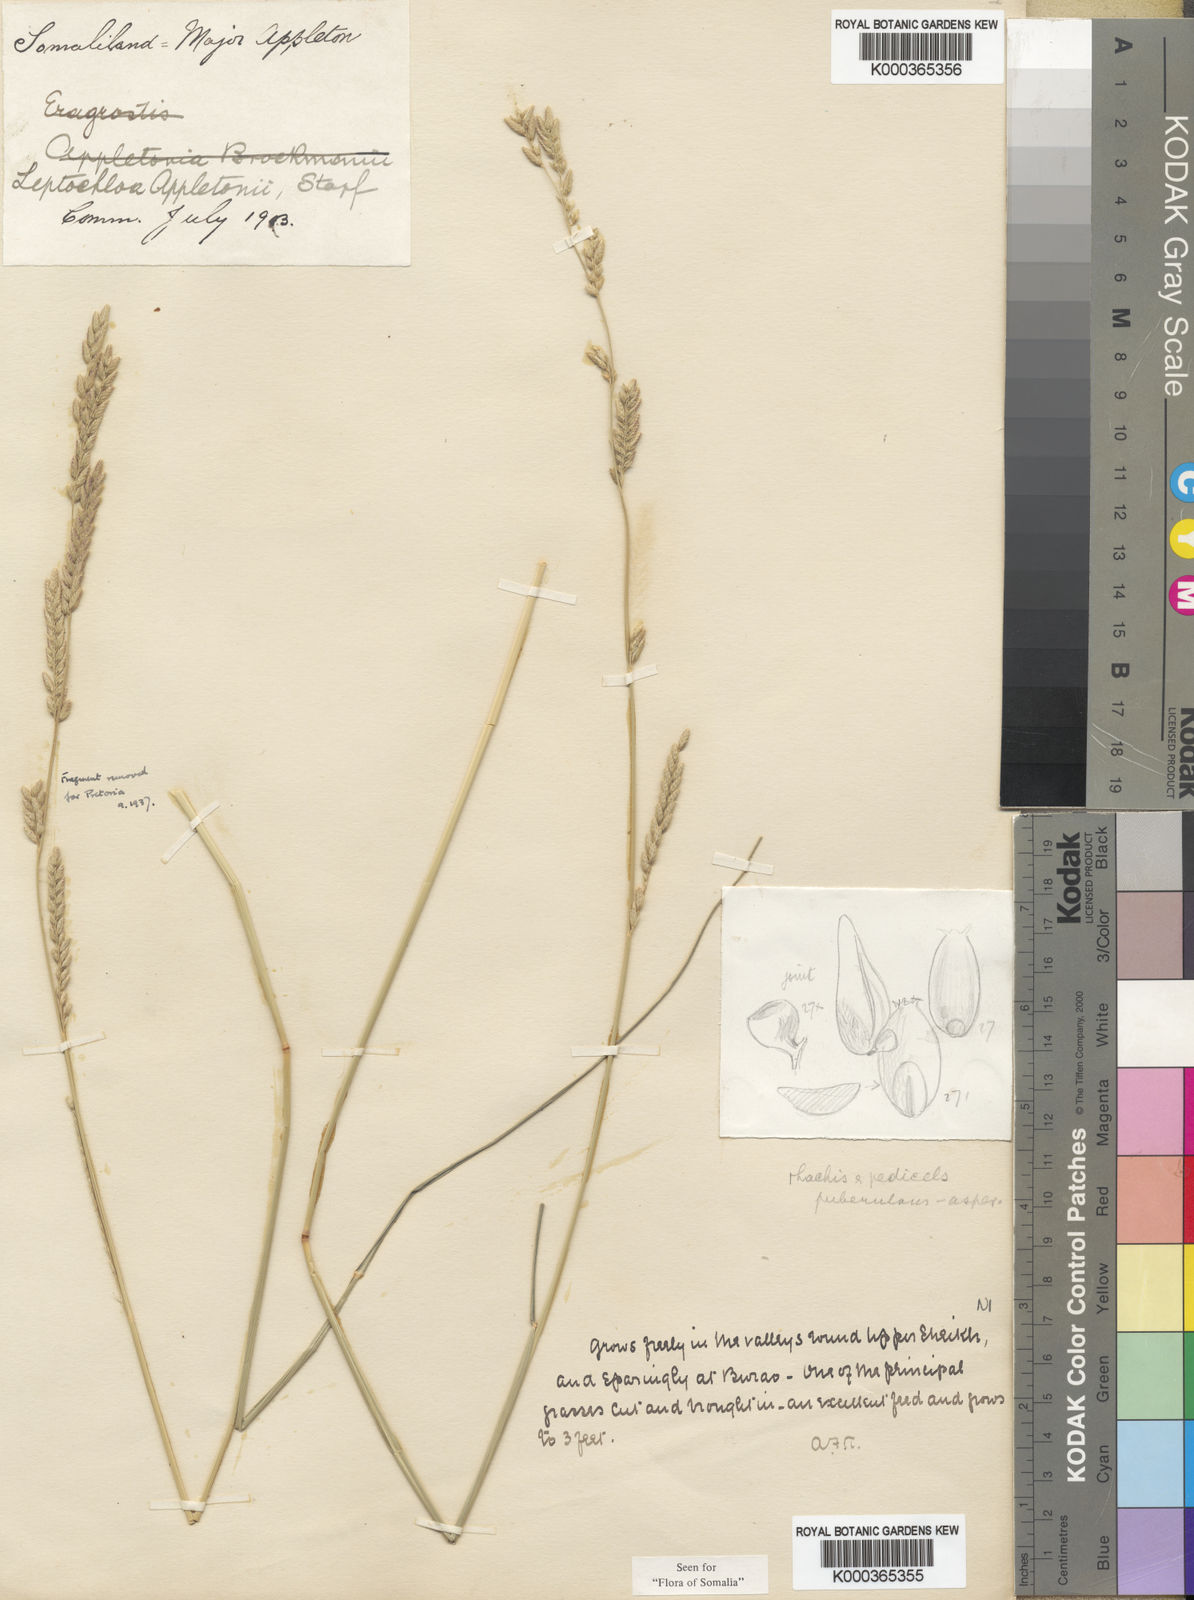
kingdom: Plantae
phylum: Tracheophyta
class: Liliopsida
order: Poales
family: Poaceae
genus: Disakisperma
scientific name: Disakisperma yemenicum
